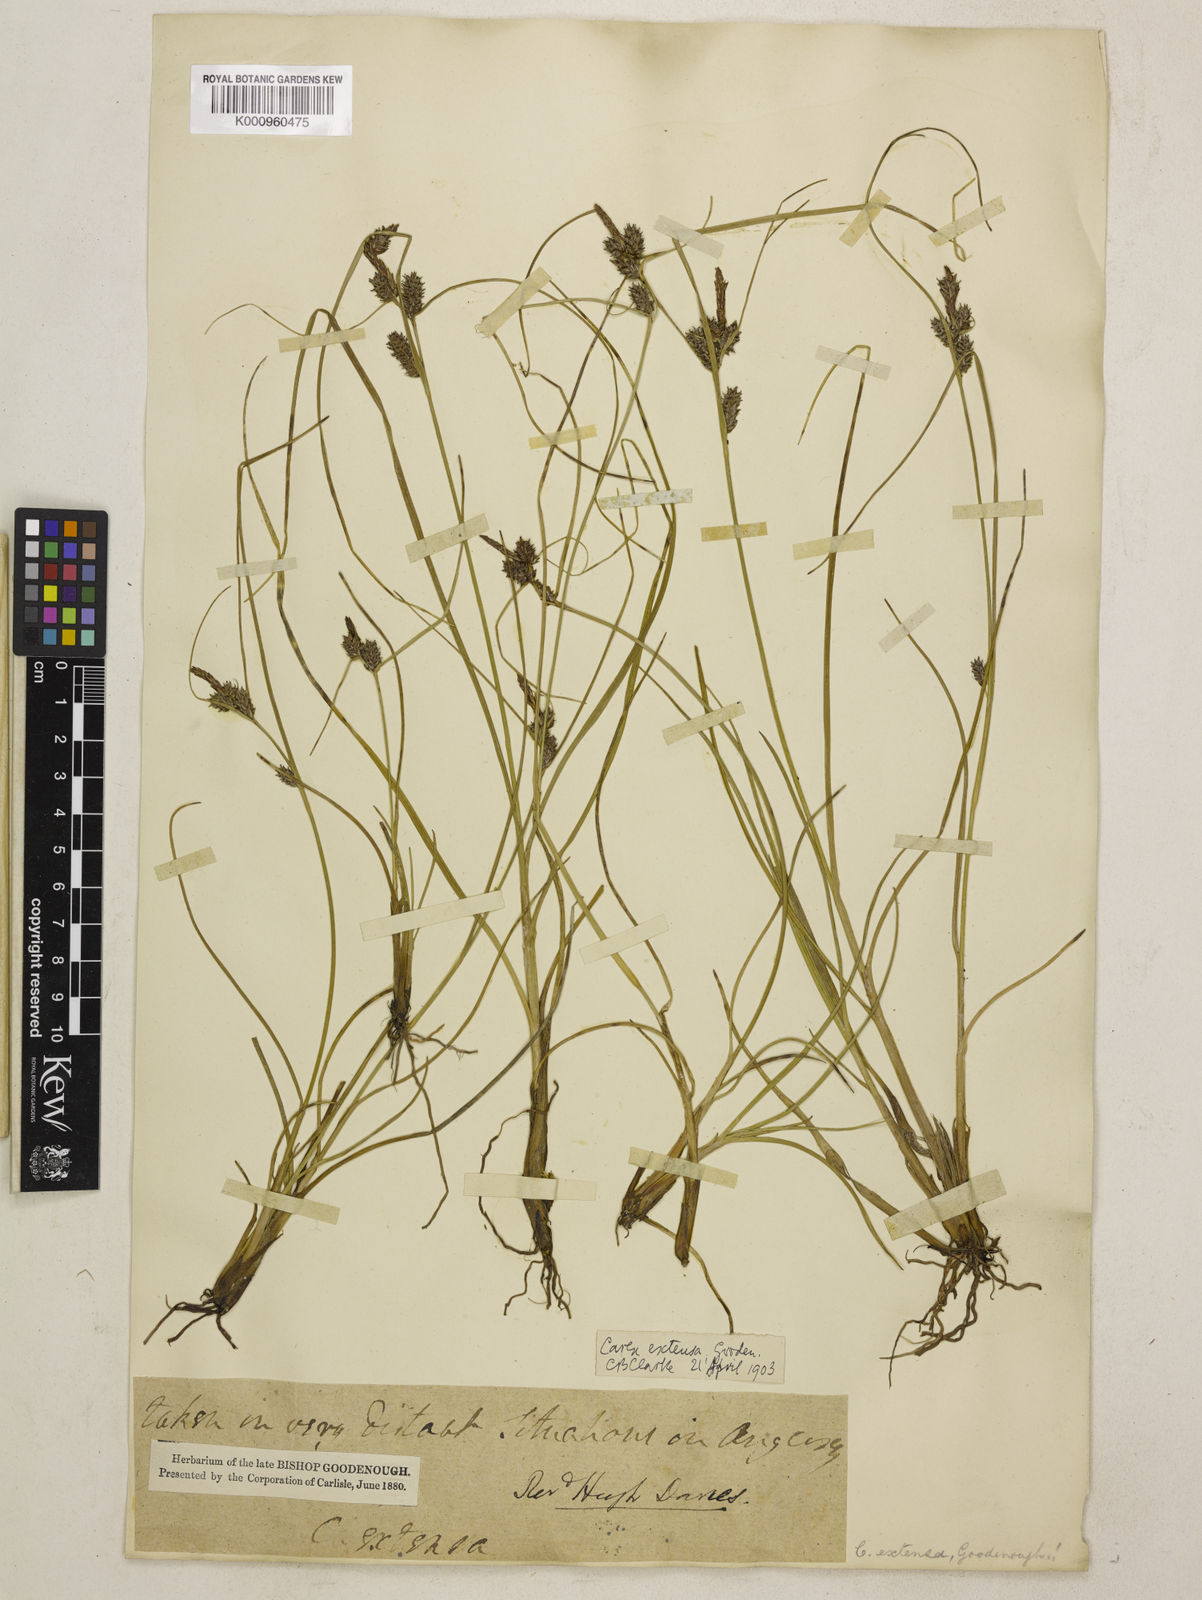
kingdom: Plantae
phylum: Tracheophyta
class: Liliopsida
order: Poales
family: Cyperaceae
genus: Carex
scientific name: Carex extensa
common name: Long-bracted sedge
